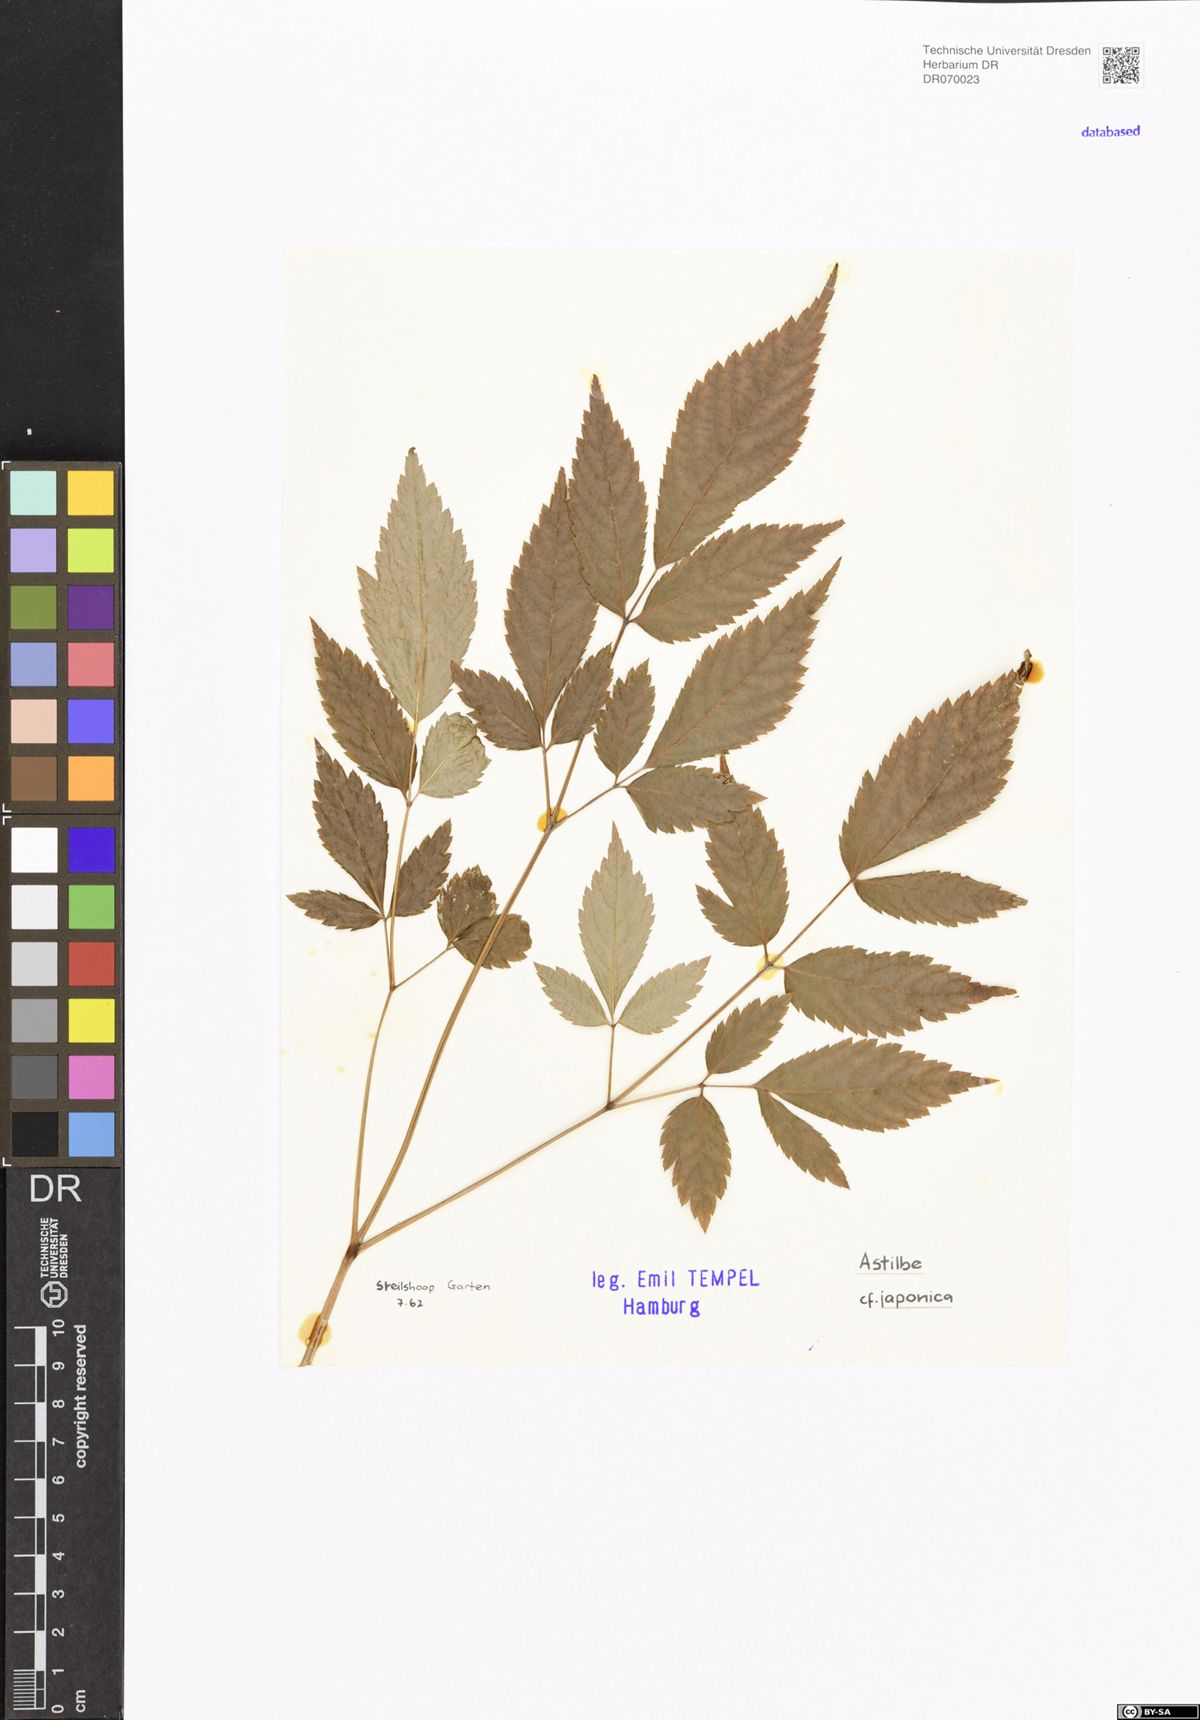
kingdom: Plantae
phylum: Tracheophyta
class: Magnoliopsida
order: Saxifragales
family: Saxifragaceae
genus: Astilbe
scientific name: Astilbe japonica
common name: False buck's-beard
